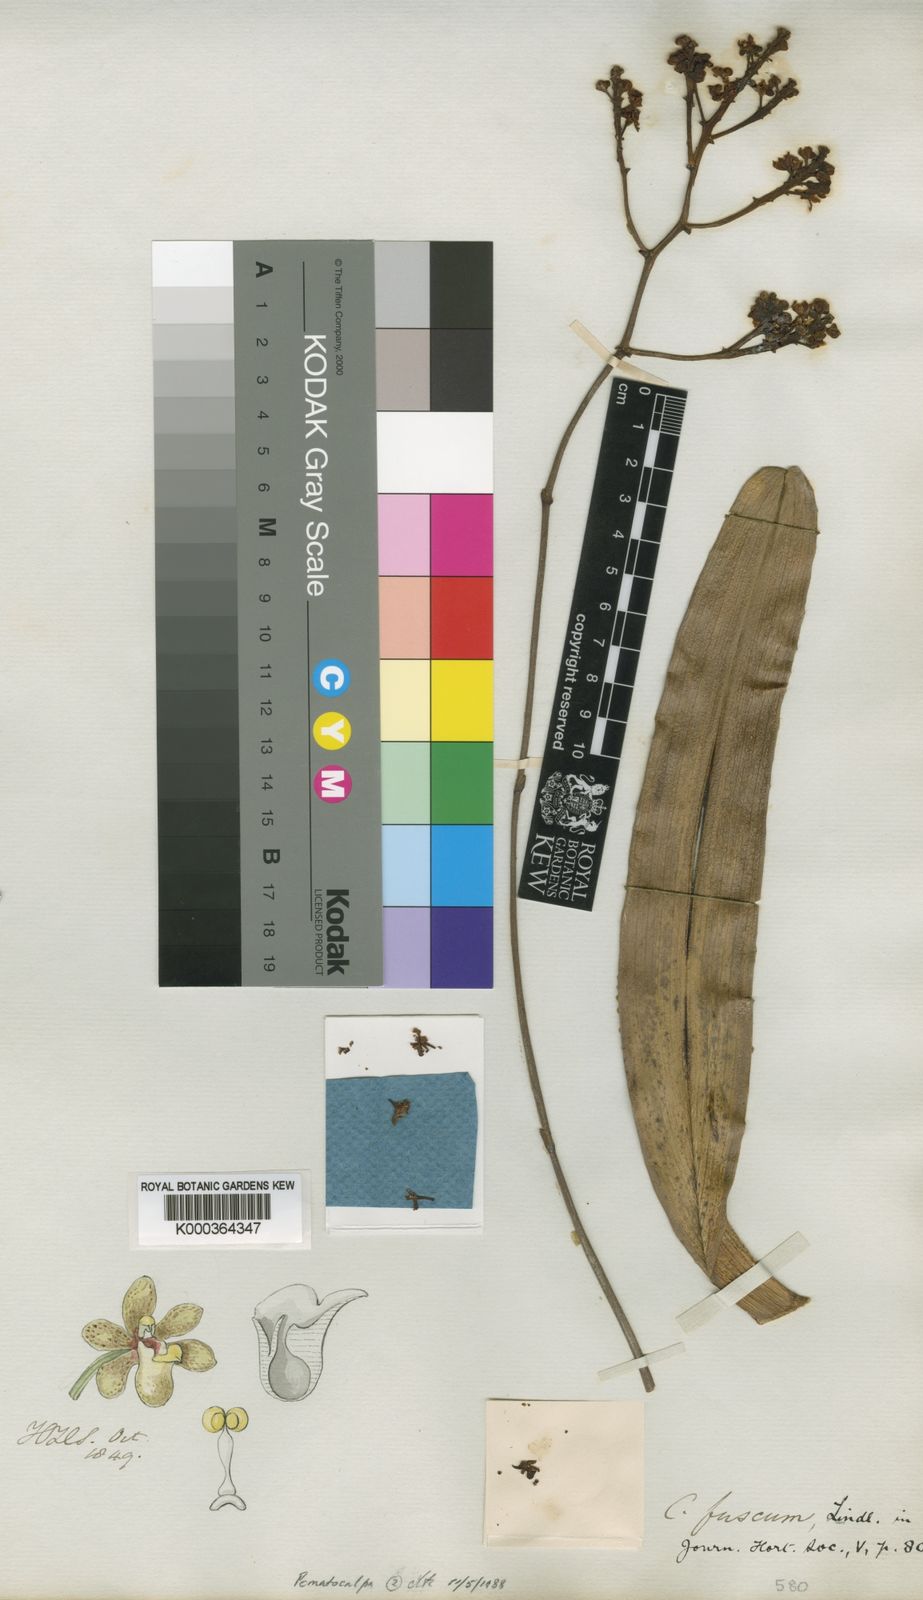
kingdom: Plantae
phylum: Tracheophyta
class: Liliopsida
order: Asparagales
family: Orchidaceae
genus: Pomatocalpa
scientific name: Pomatocalpa fuscum
